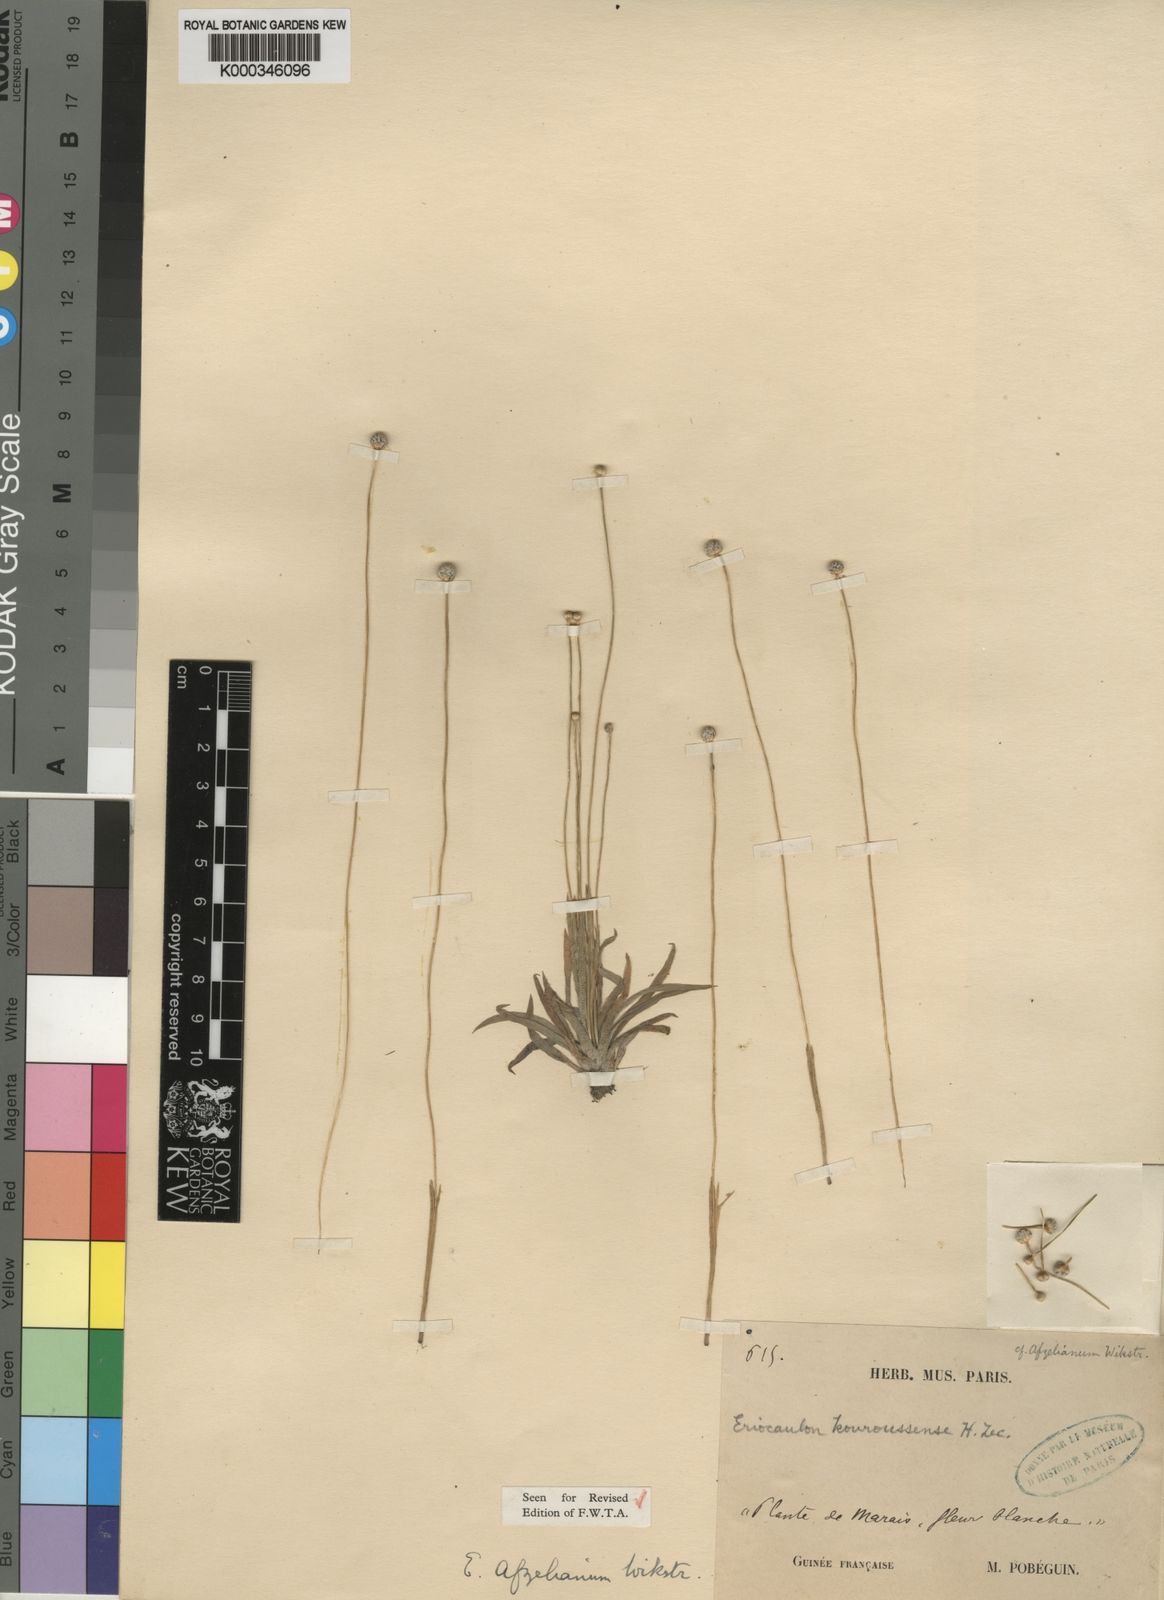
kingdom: Plantae
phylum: Tracheophyta
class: Liliopsida
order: Poales
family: Eriocaulaceae
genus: Eriocaulon
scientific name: Eriocaulon
